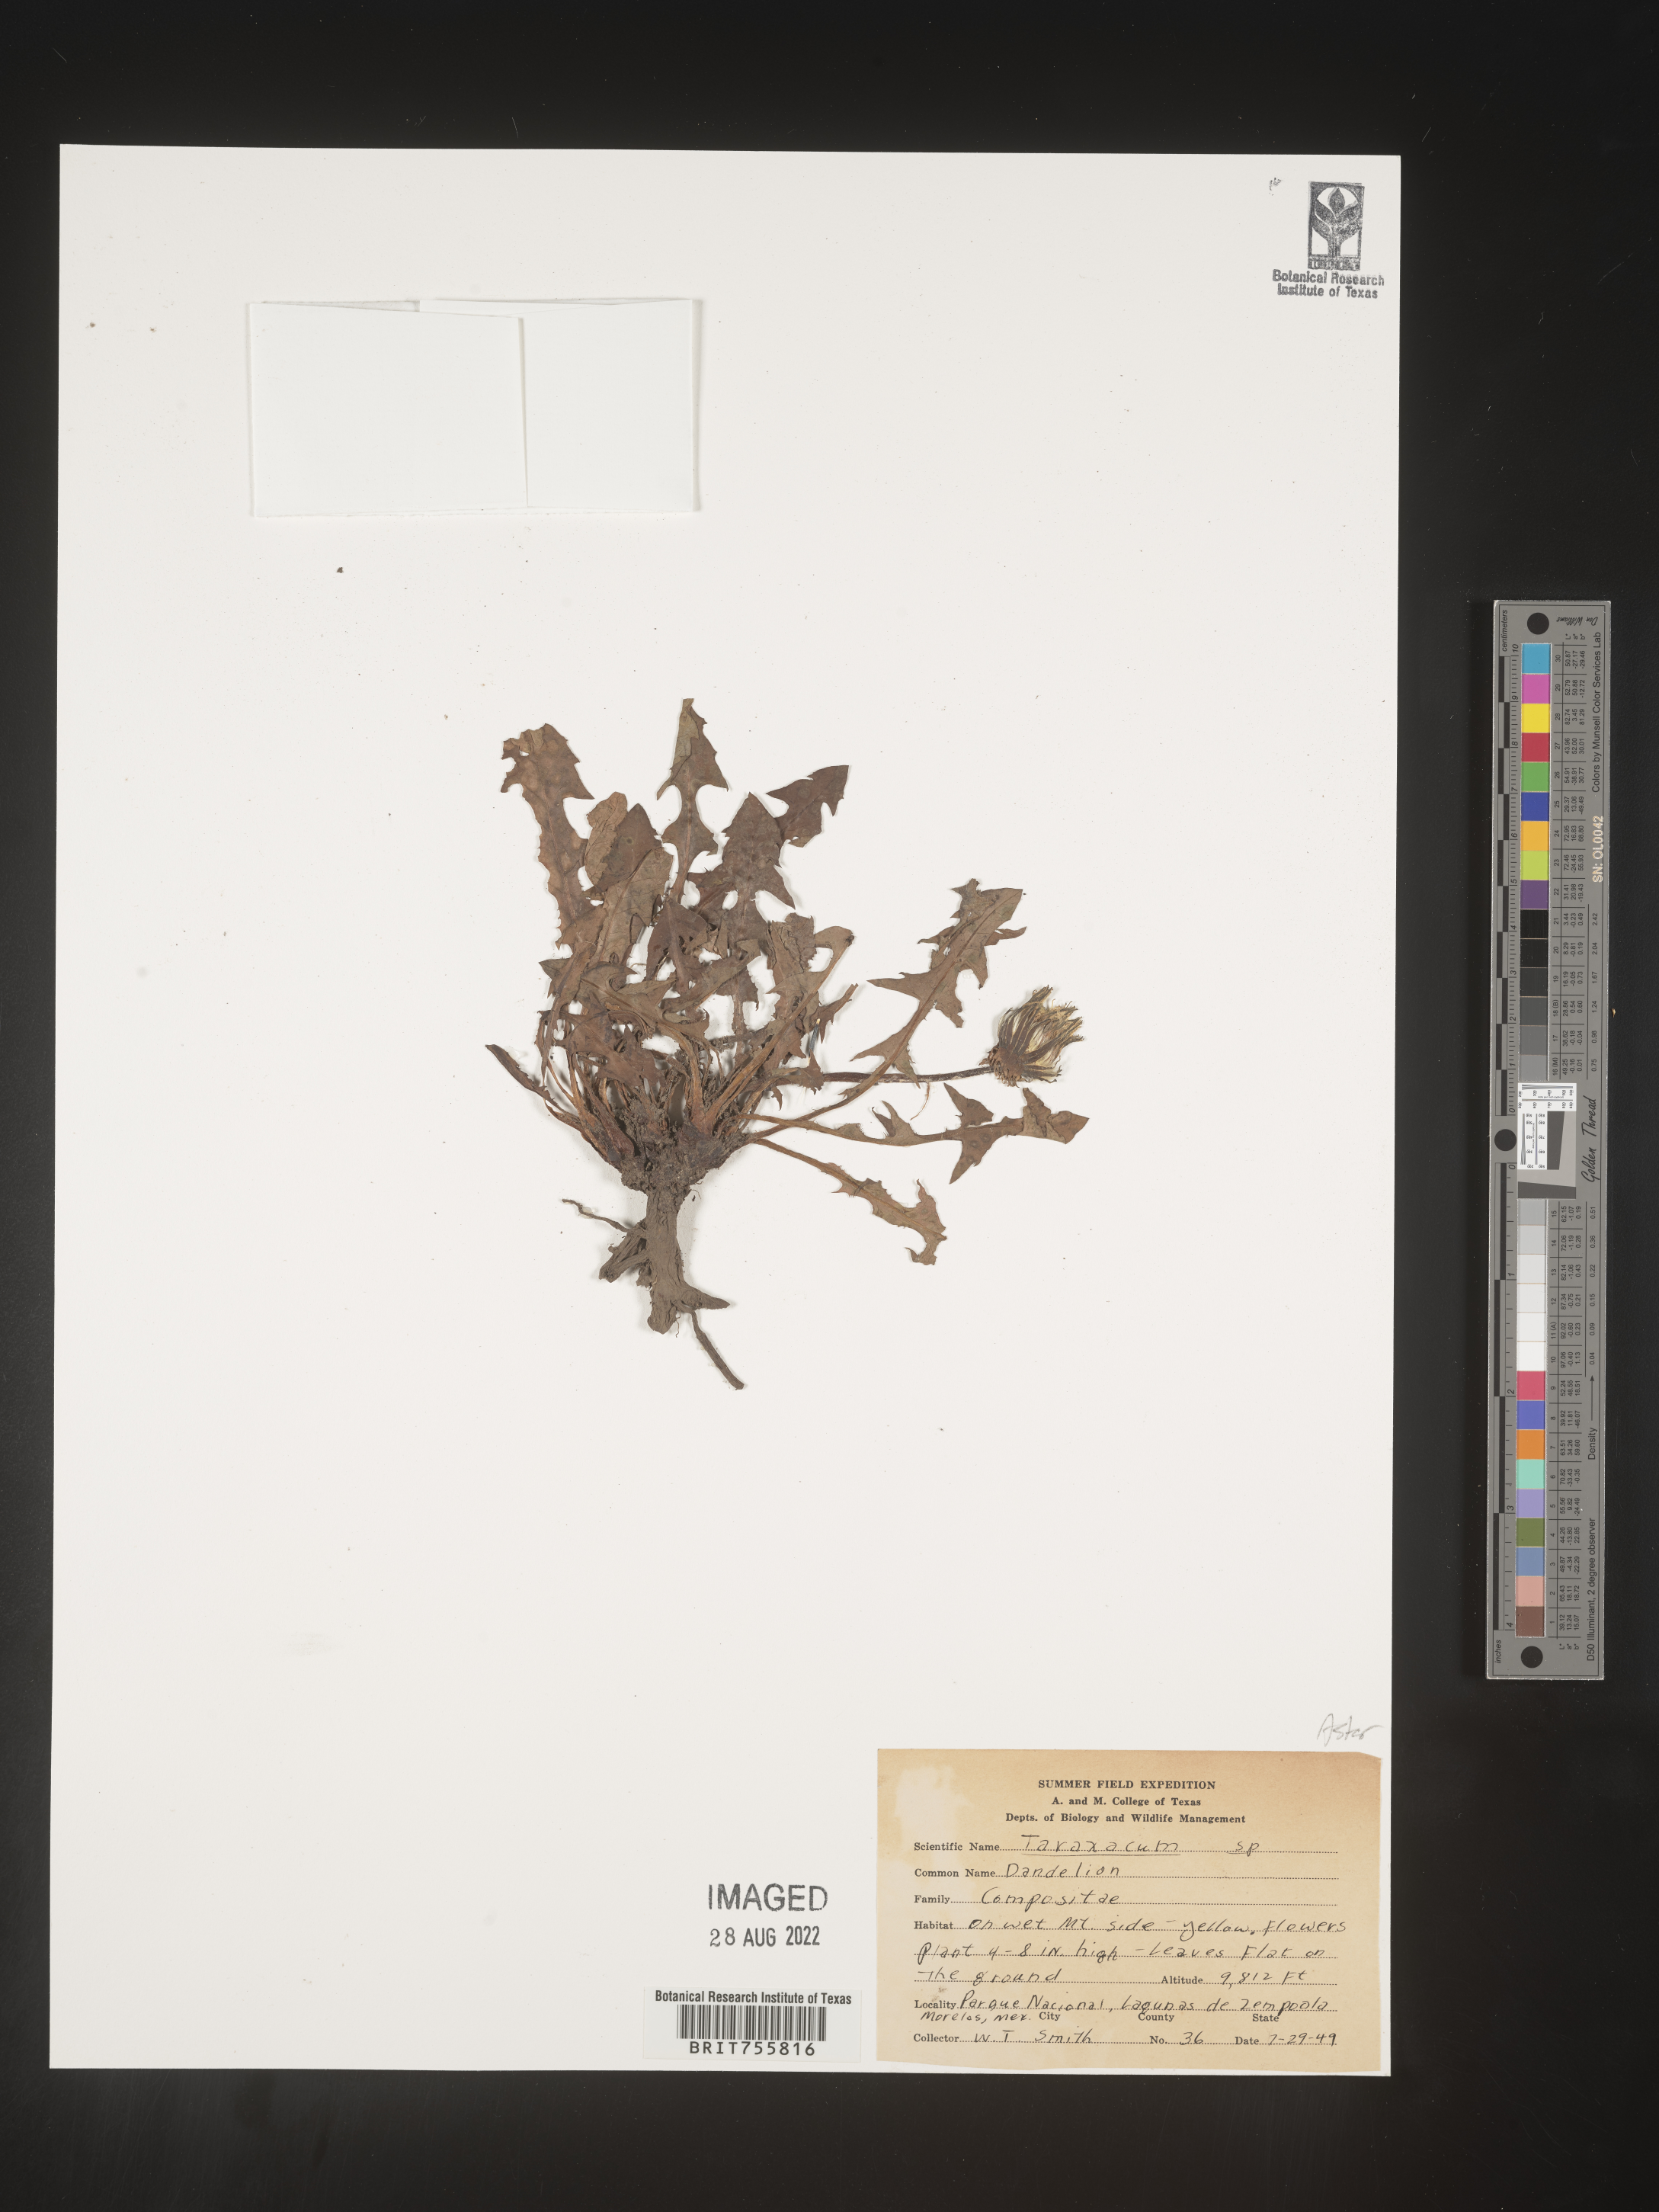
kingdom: Plantae
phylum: Tracheophyta
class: Magnoliopsida
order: Asterales
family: Asteraceae
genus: Taraxacum
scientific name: Taraxacum
